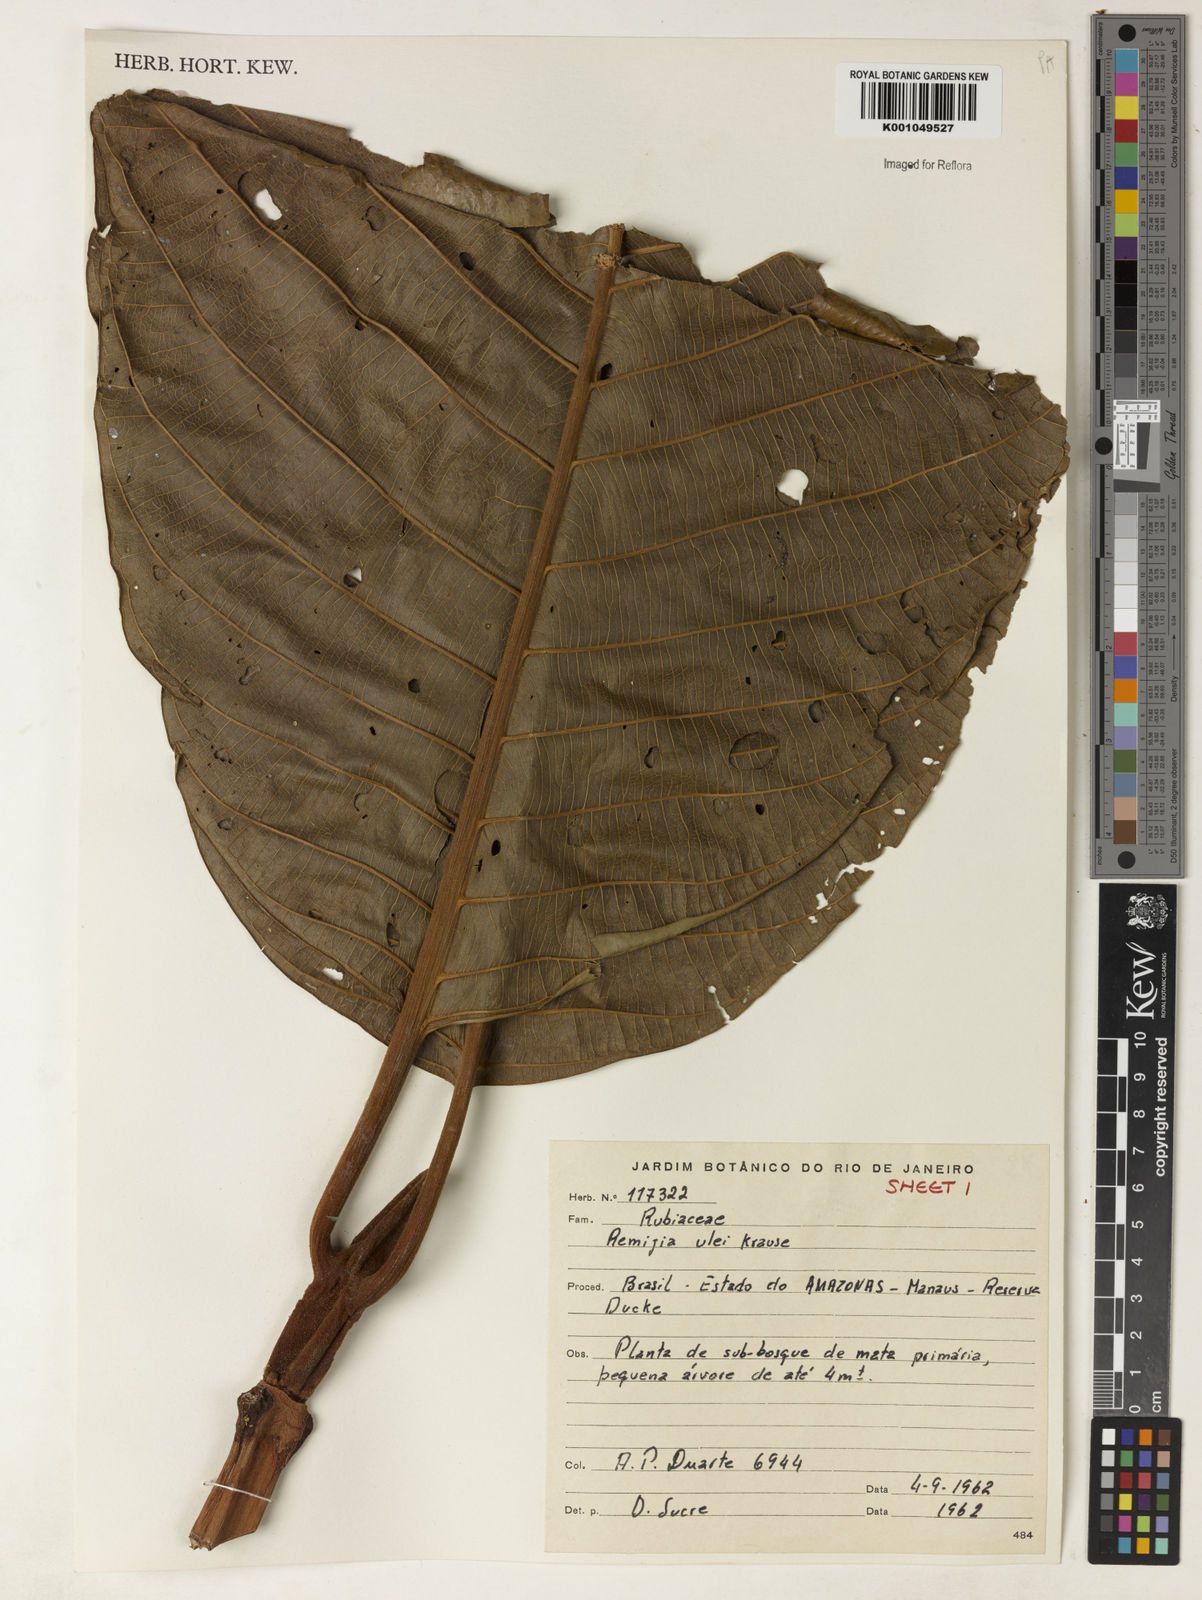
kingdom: Plantae
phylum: Tracheophyta
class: Magnoliopsida
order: Gentianales
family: Rubiaceae
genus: Remijia
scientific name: Remijia ulei
